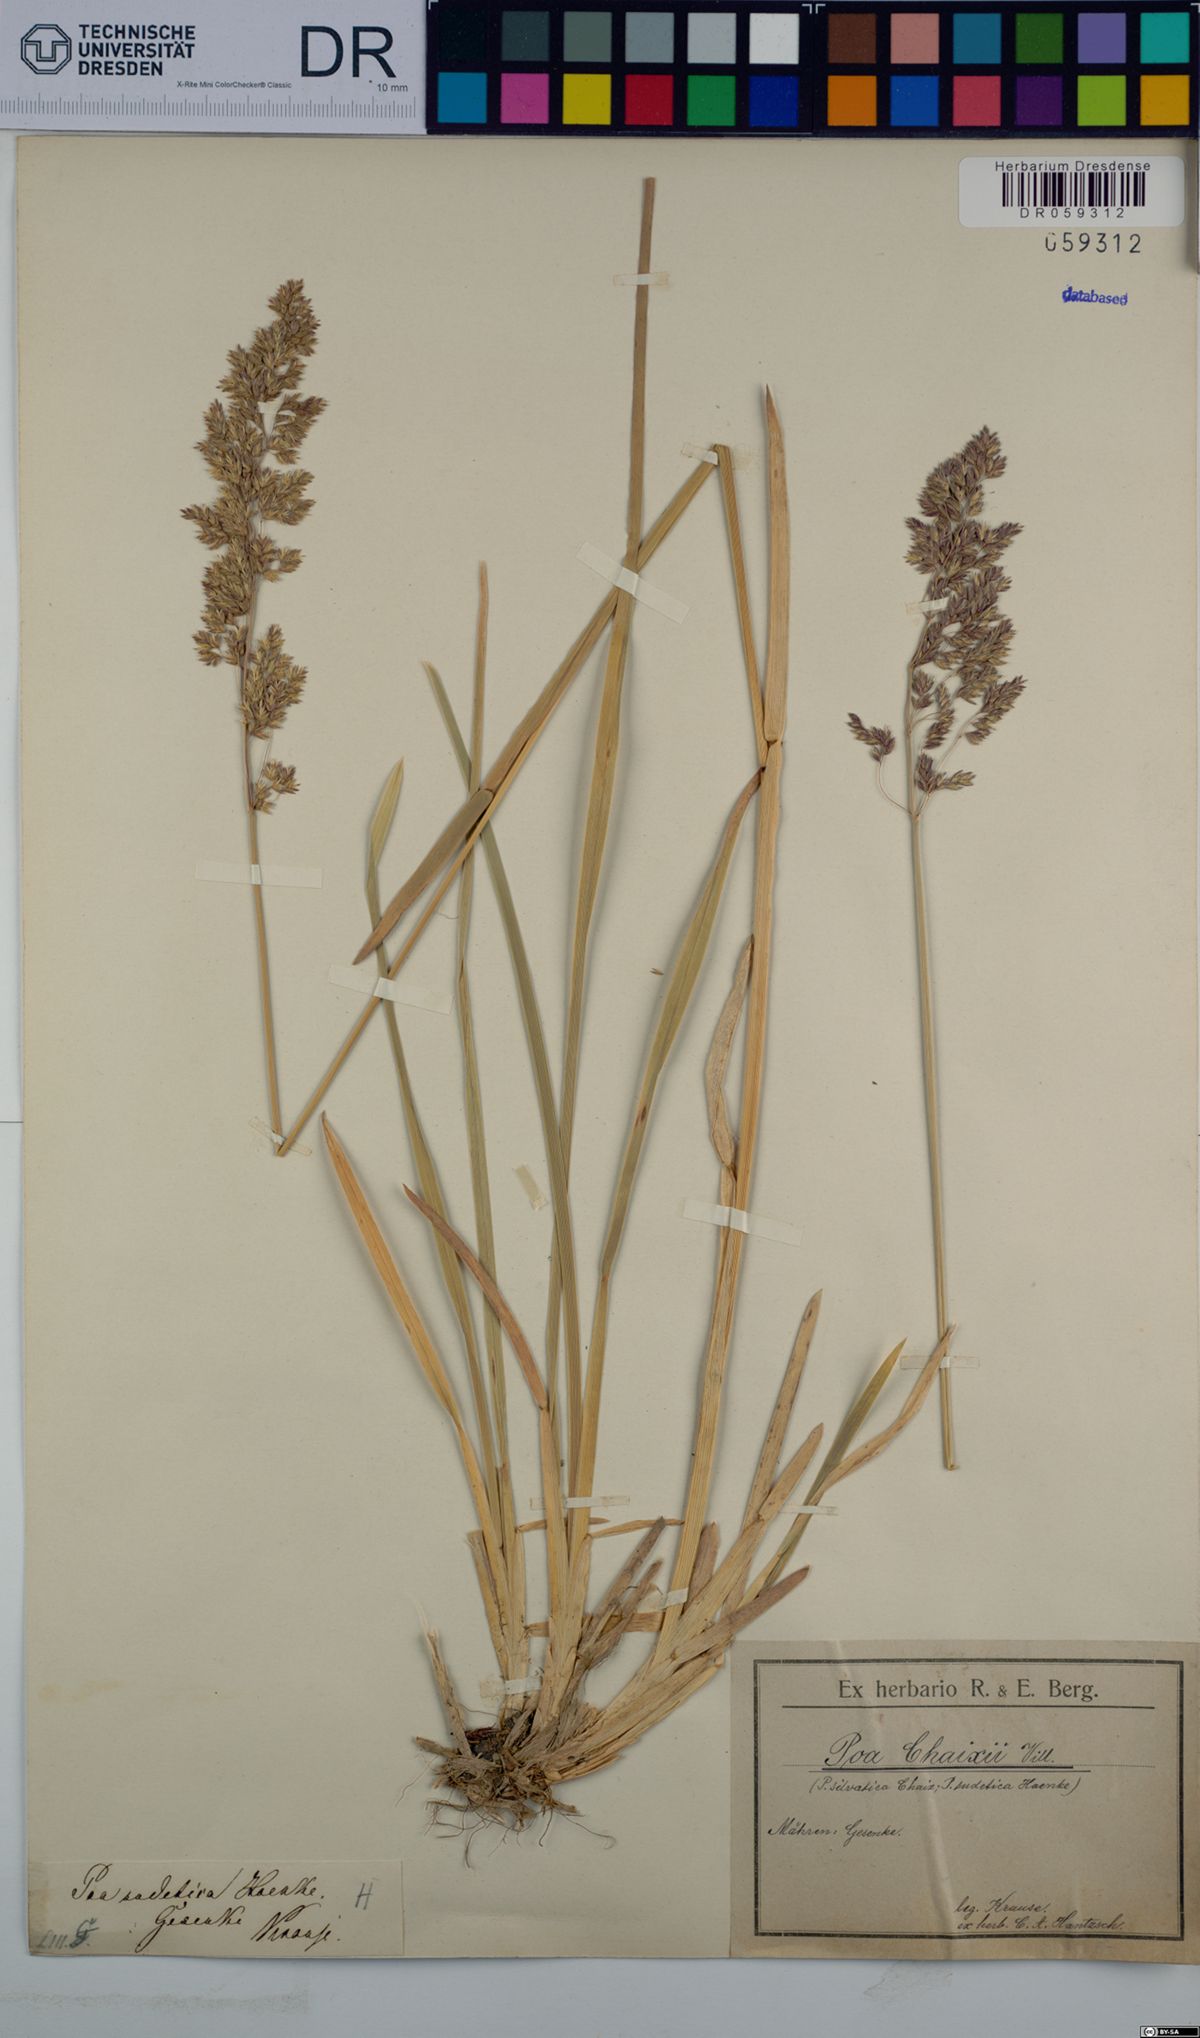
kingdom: Plantae
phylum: Tracheophyta
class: Liliopsida
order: Poales
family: Poaceae
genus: Poa
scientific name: Poa chaixii
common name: Broad-leaved meadow-grass
